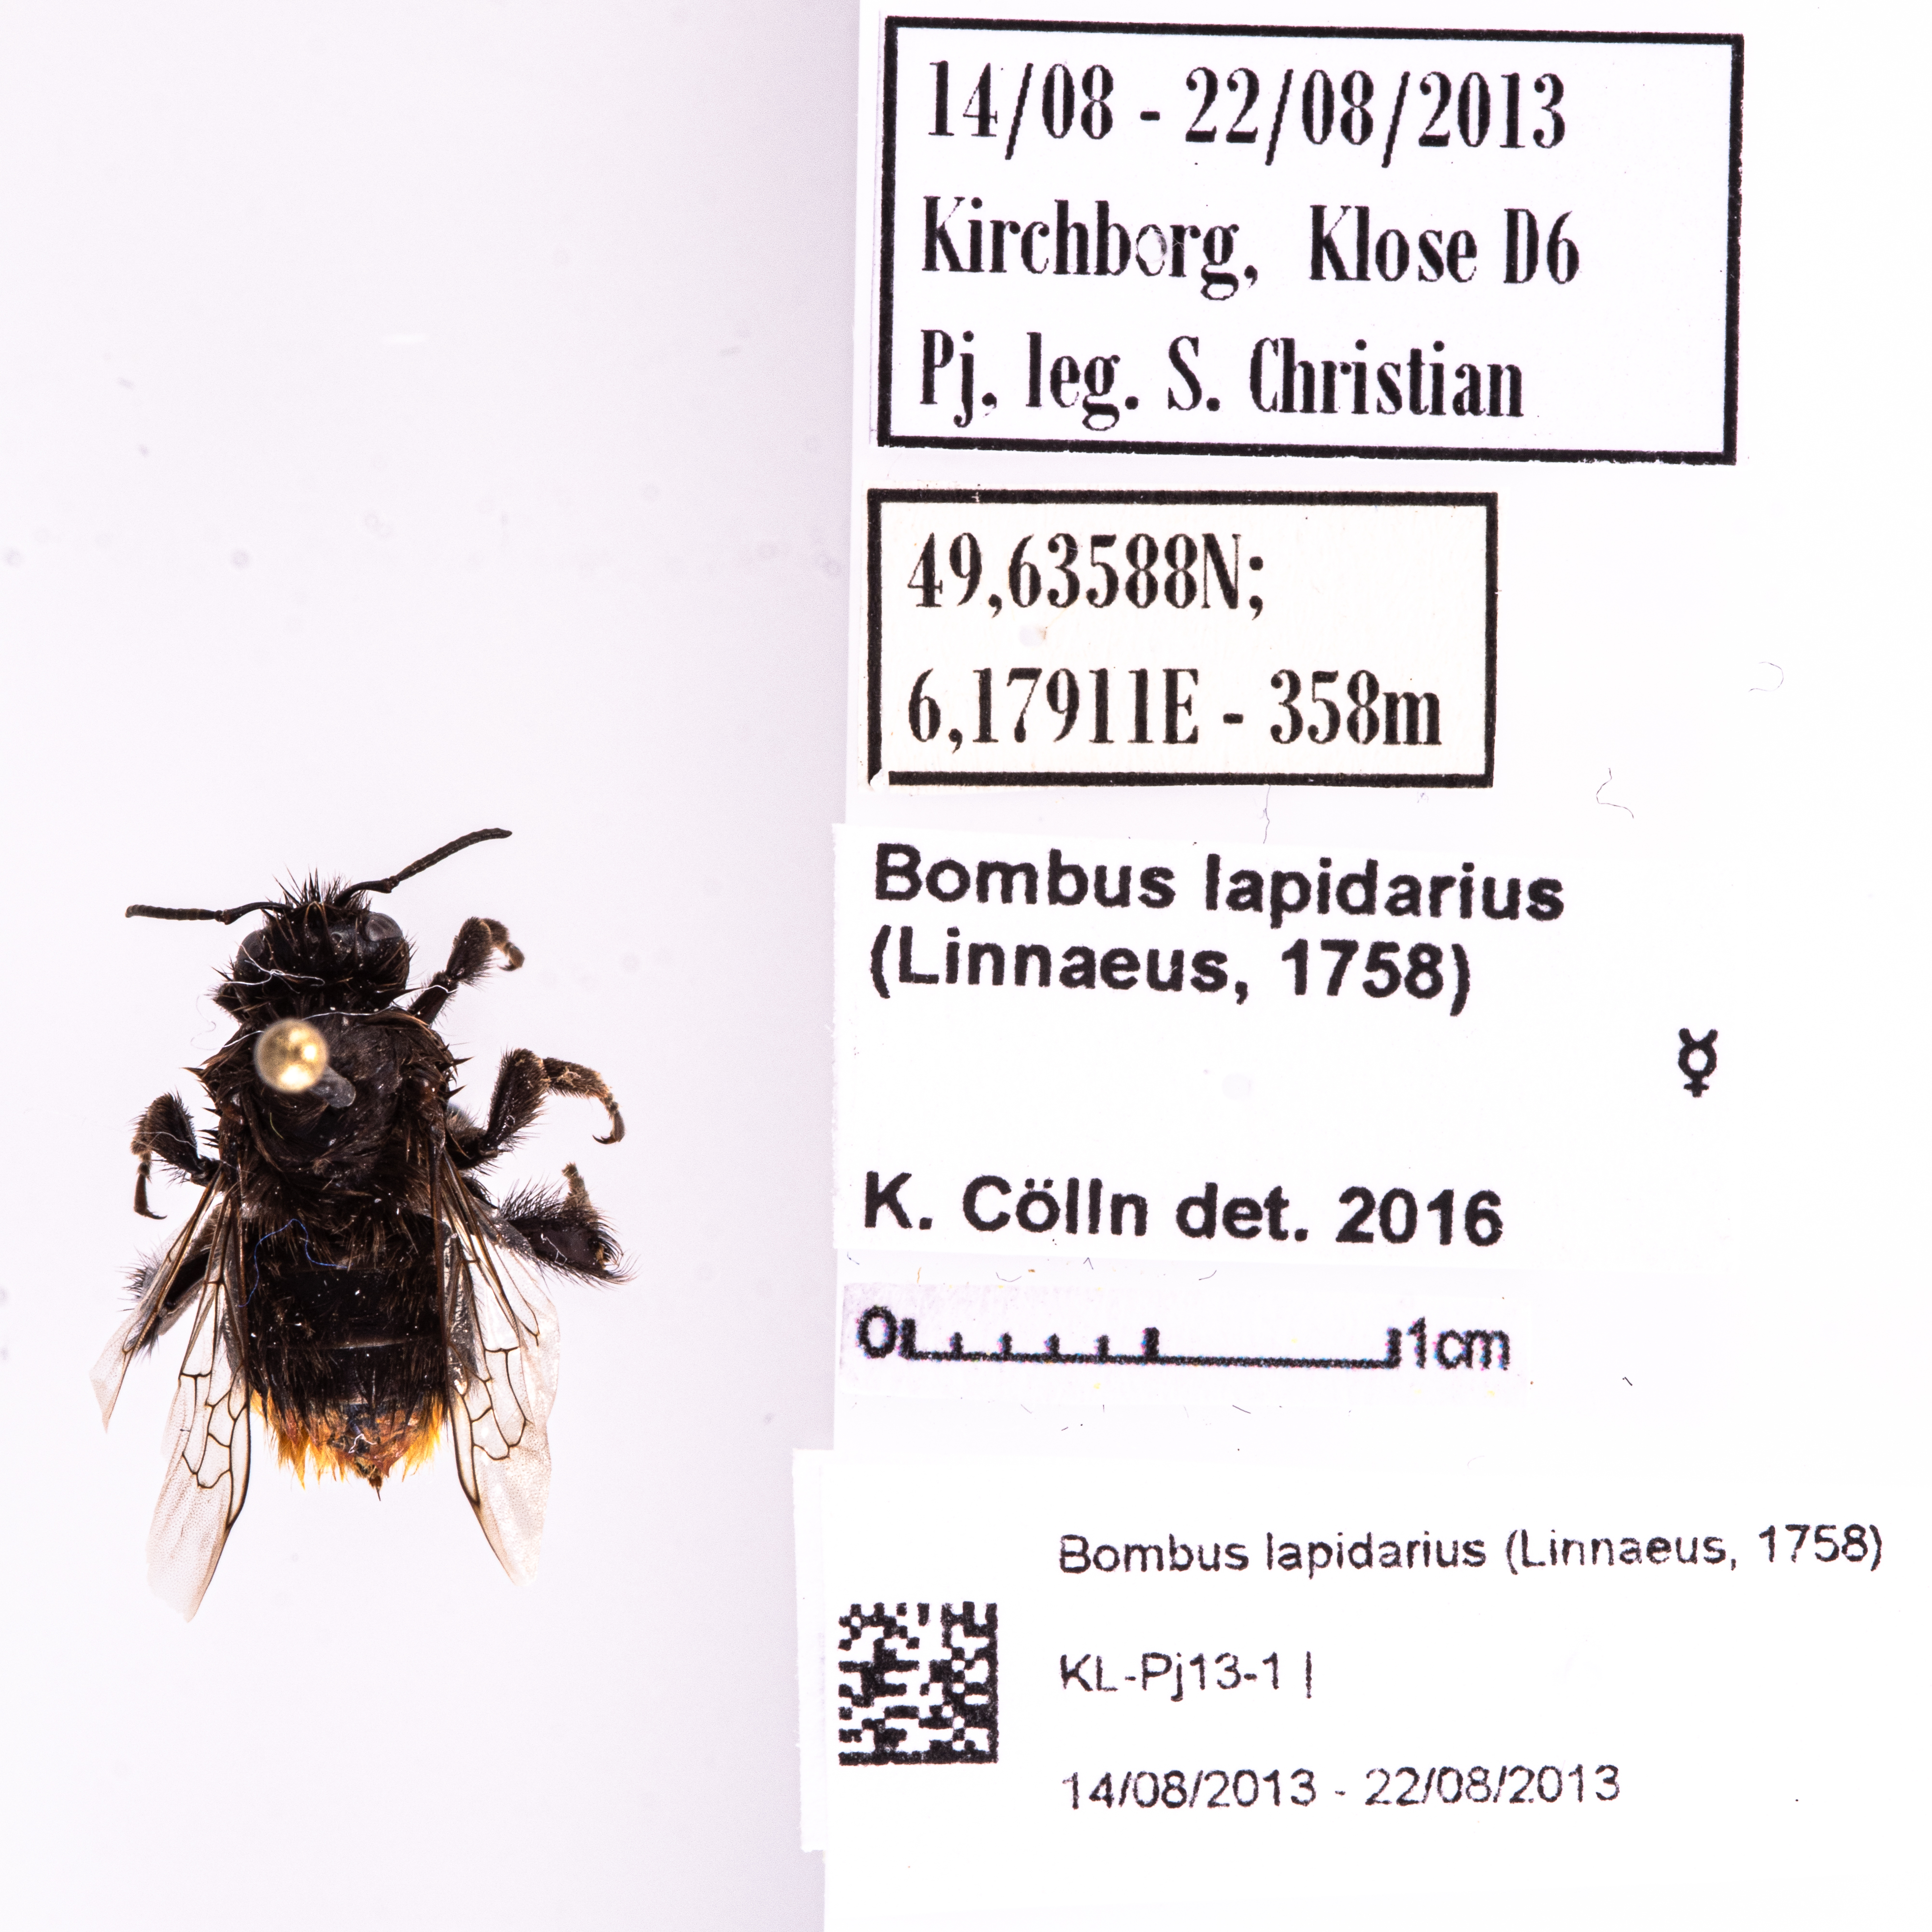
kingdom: Animalia
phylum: Arthropoda
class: Insecta
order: Hymenoptera
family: Apidae
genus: Bombus
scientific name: Bombus lapidarius
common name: Large red-tailed humble-bee
